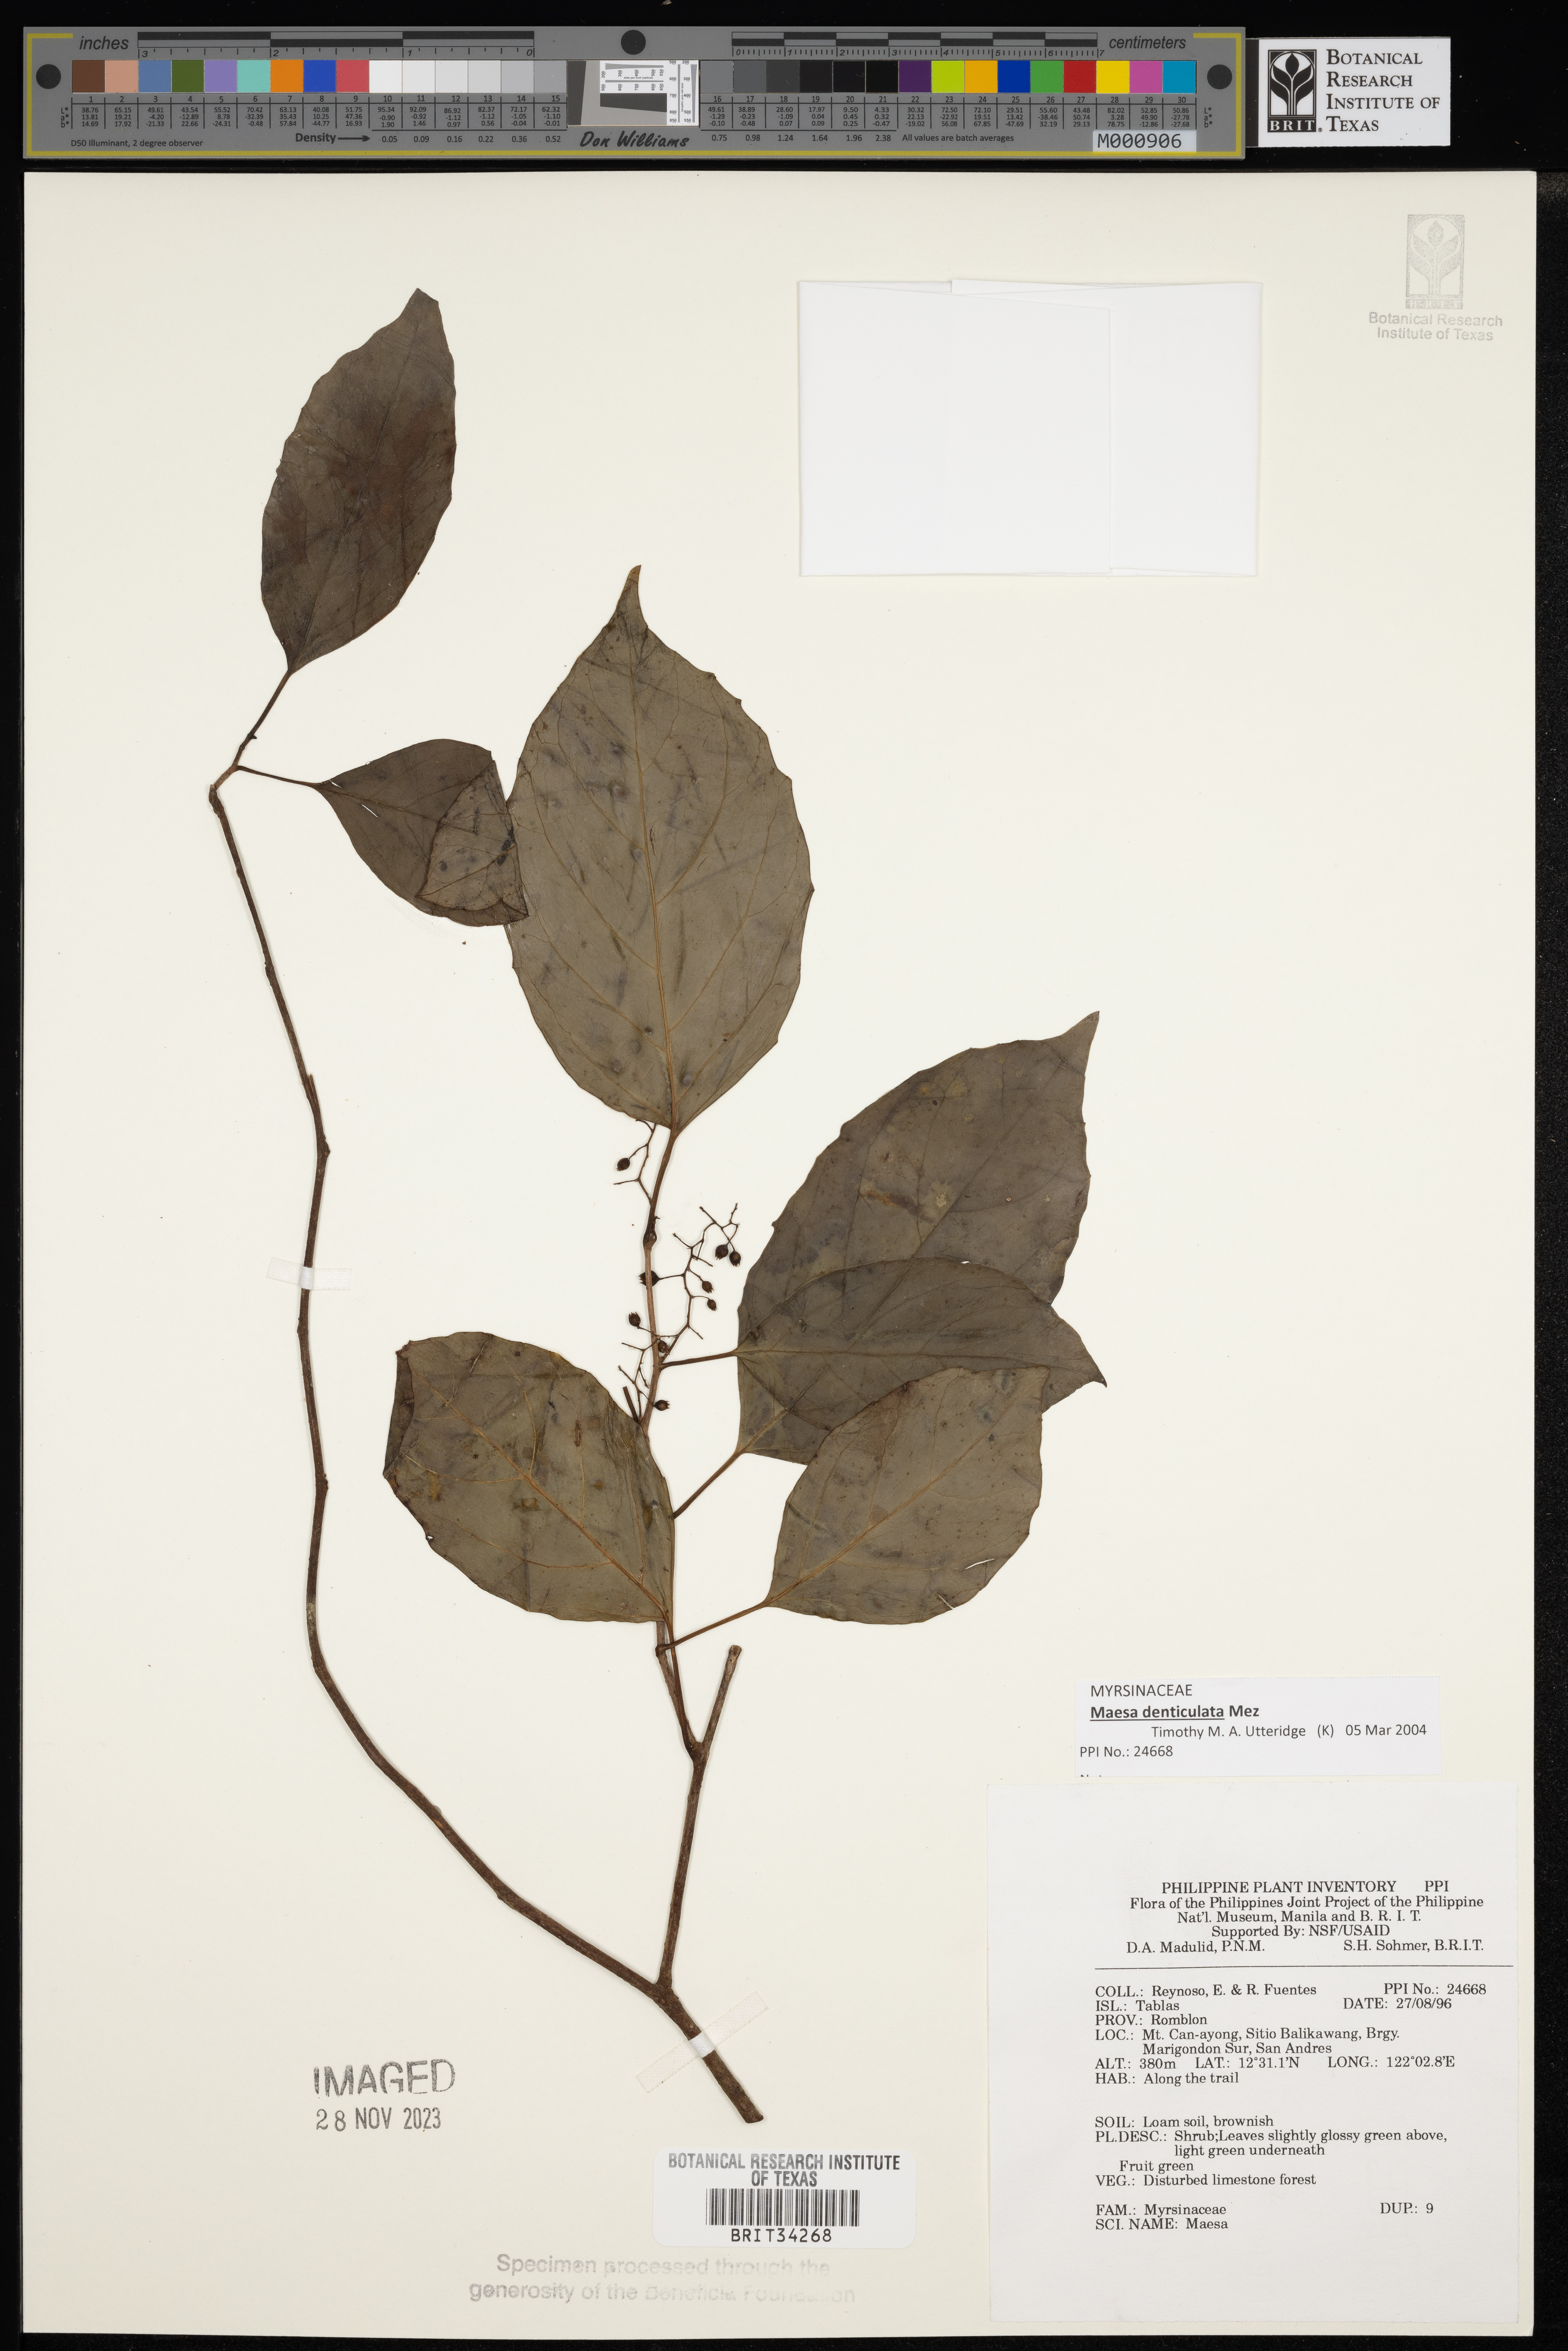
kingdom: Plantae
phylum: Tracheophyta
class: Magnoliopsida
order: Ericales
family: Primulaceae
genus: Maesa
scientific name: Maesa
